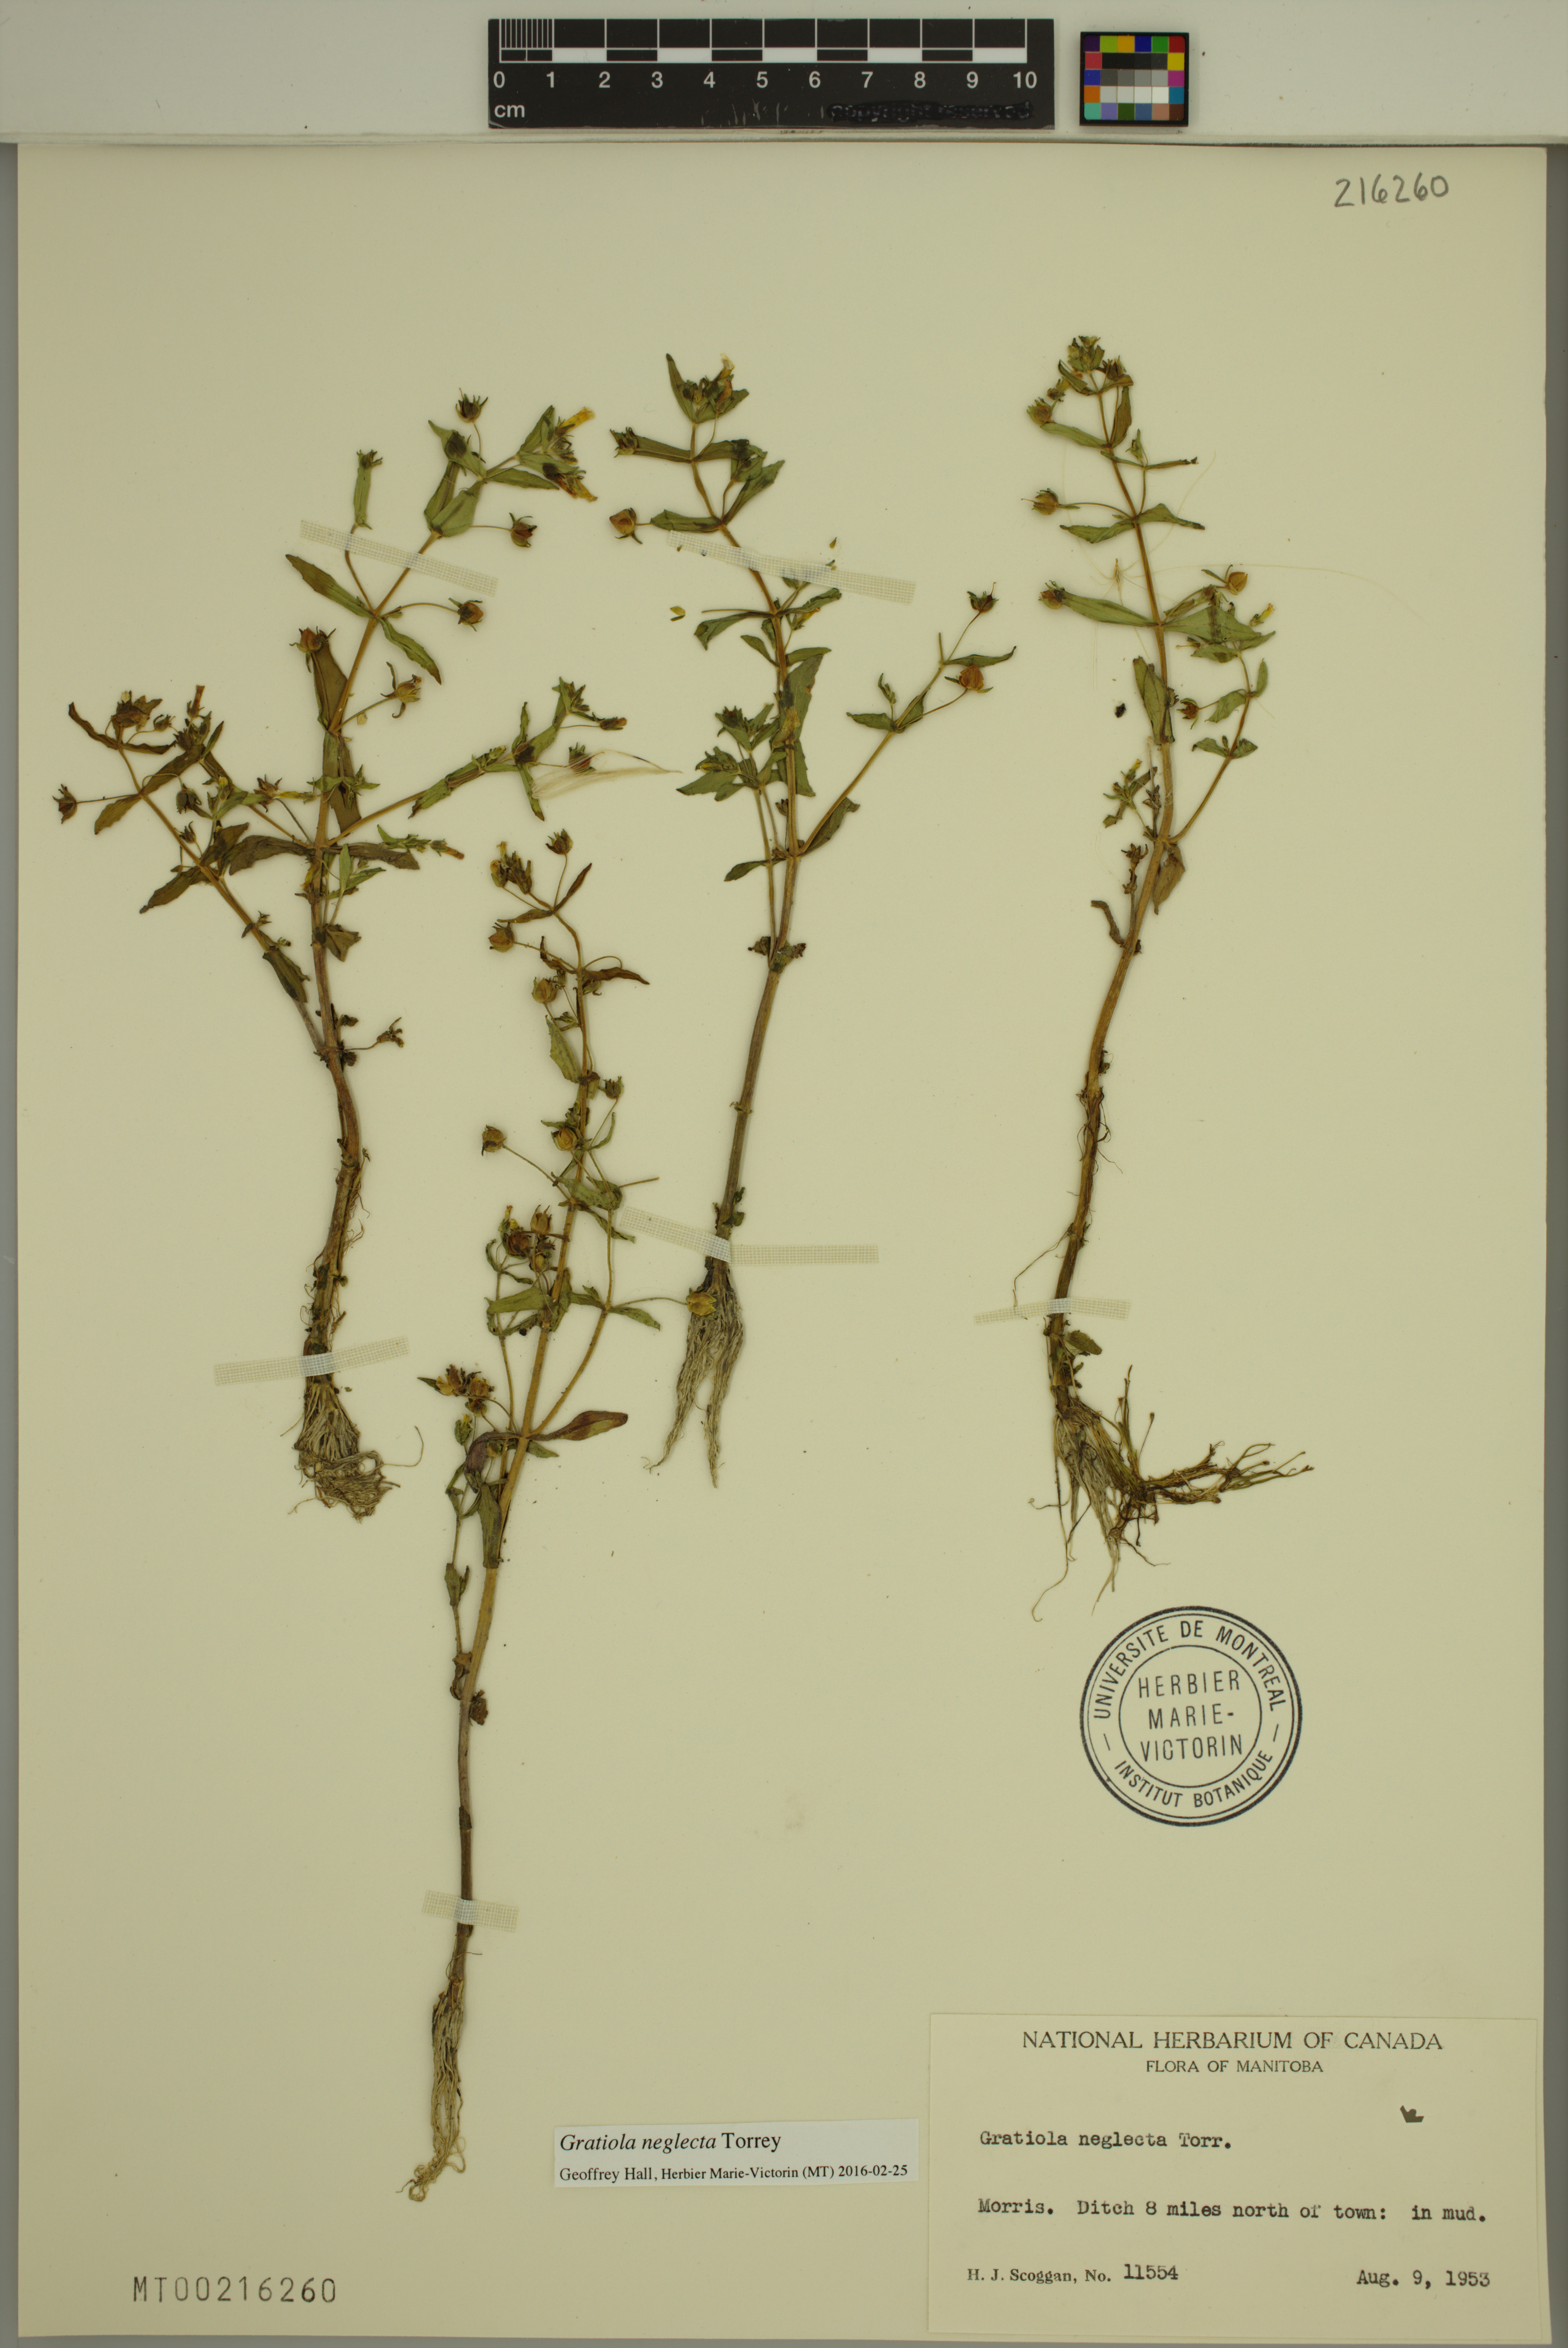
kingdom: Plantae
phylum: Tracheophyta
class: Magnoliopsida
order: Lamiales
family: Plantaginaceae
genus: Gratiola
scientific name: Gratiola neglecta
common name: American hedge-hyssop
